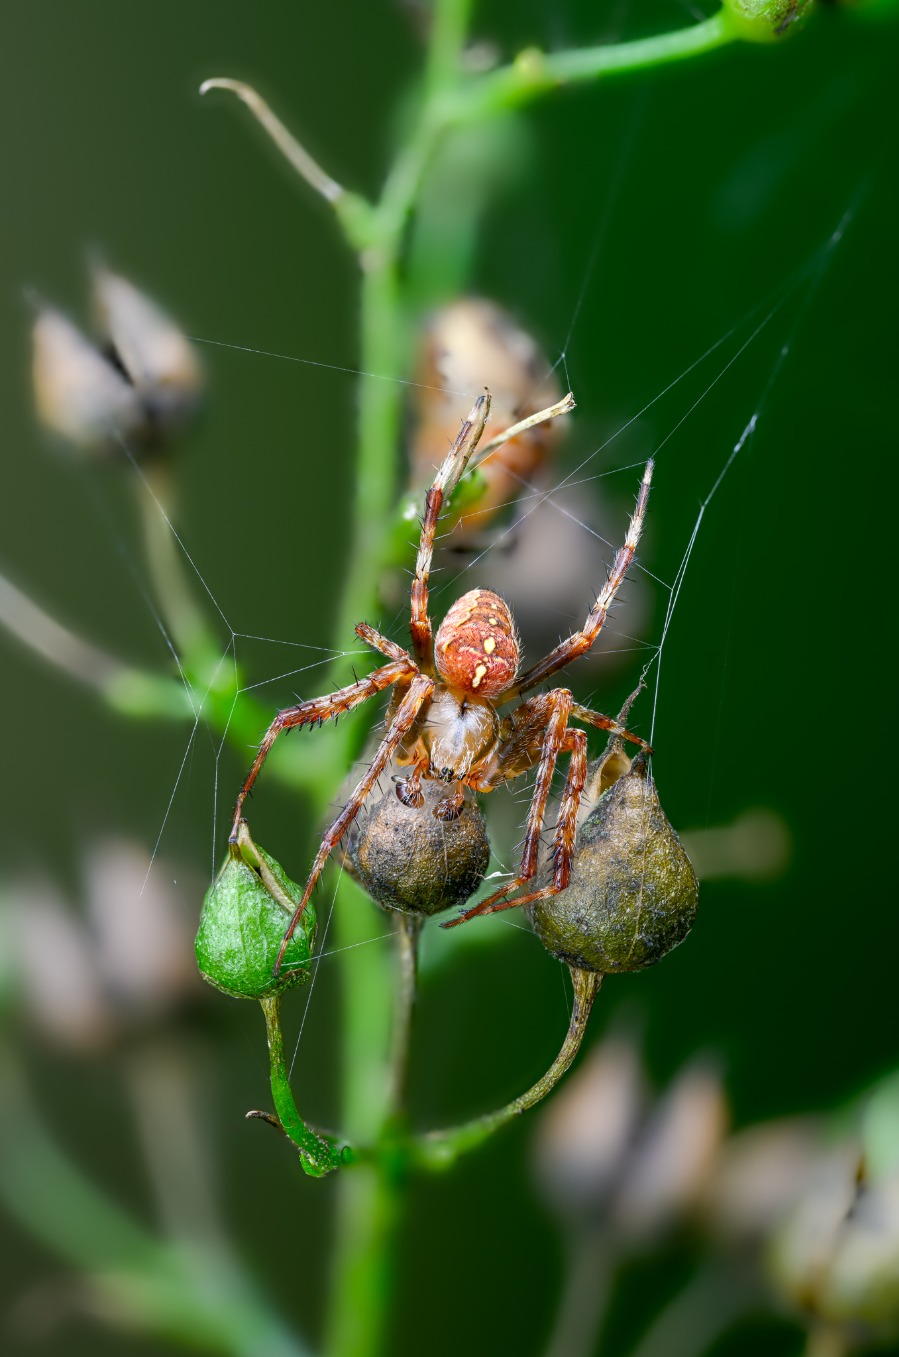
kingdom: Animalia
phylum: Arthropoda
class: Arachnida
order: Araneae
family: Araneidae
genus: Araneus
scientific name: Araneus diadematus
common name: Korsedderkop
